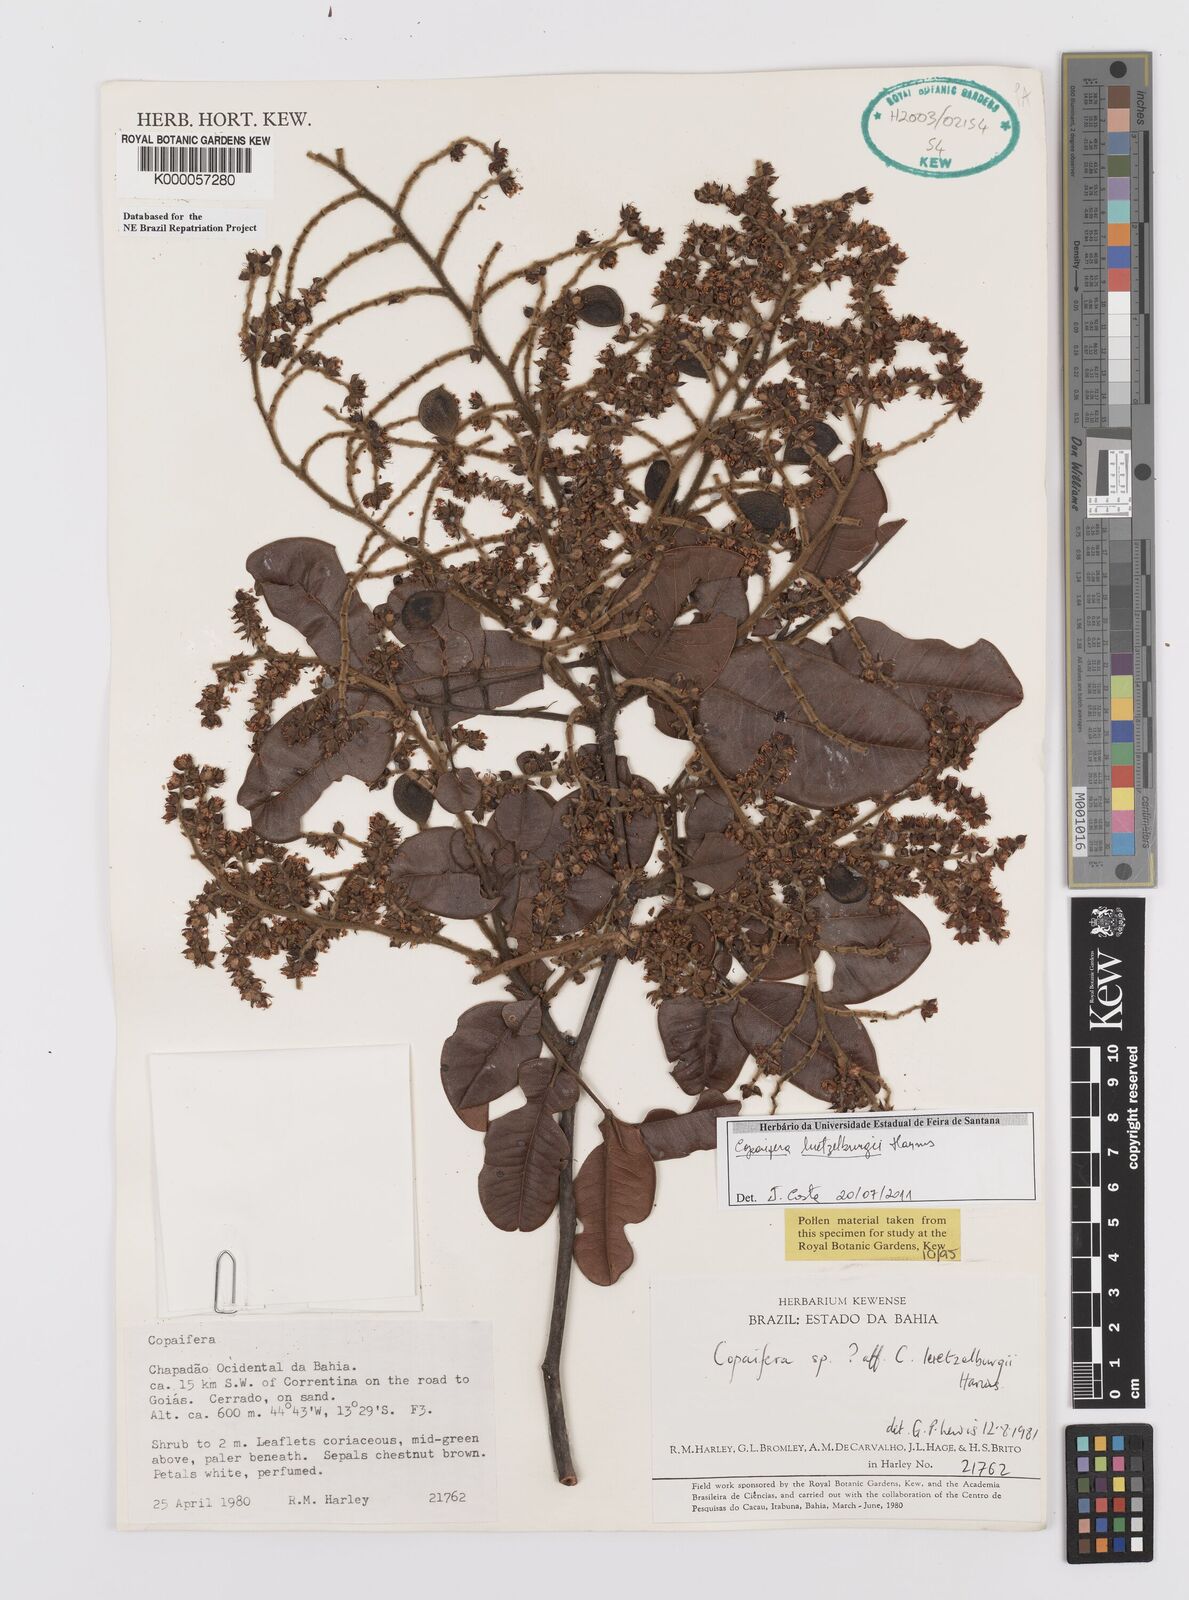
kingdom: Plantae
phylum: Tracheophyta
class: Magnoliopsida
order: Fabales
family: Fabaceae
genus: Copaifera
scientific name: Copaifera luetzelburgii
